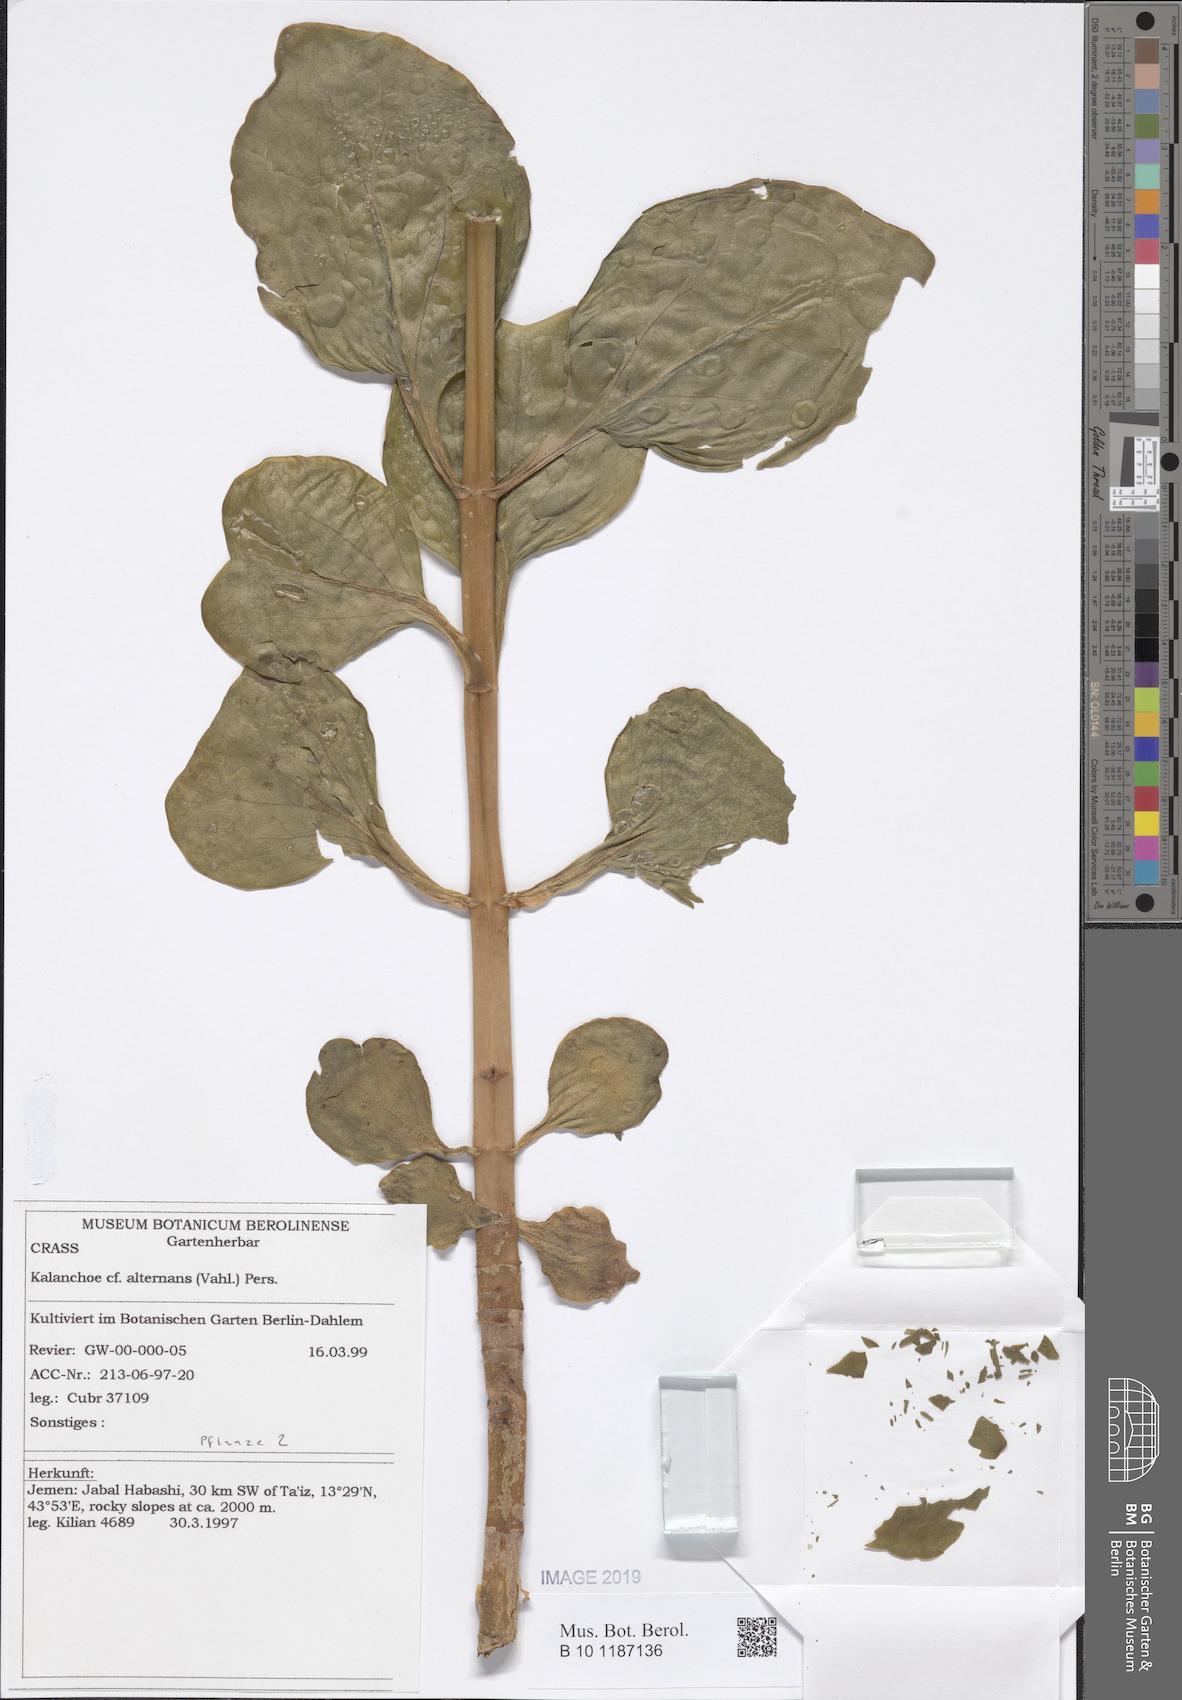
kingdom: Plantae
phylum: Tracheophyta
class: Magnoliopsida
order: Saxifragales
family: Crassulaceae
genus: Kalanchoe
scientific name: Kalanchoe deficiens
